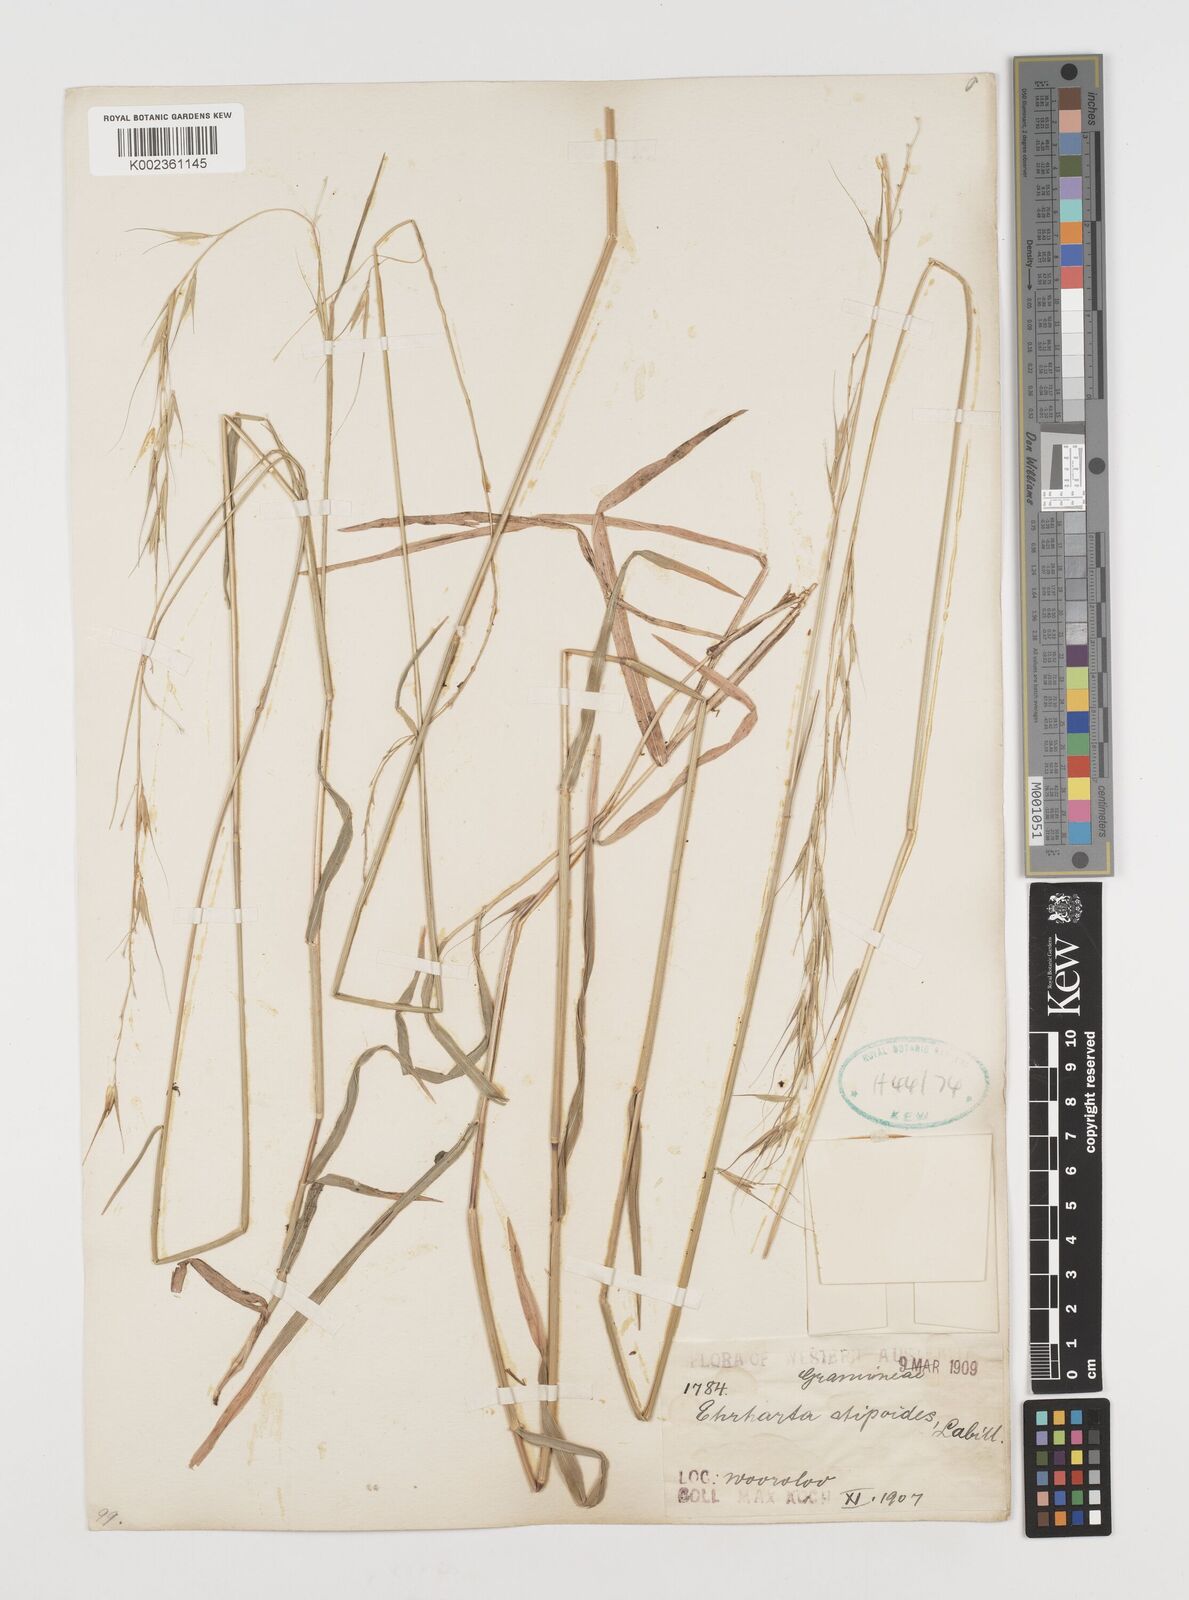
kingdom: Plantae
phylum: Tracheophyta
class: Liliopsida
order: Poales
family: Poaceae
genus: Microlaena
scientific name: Microlaena stipoides
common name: Meadow ricegrass
